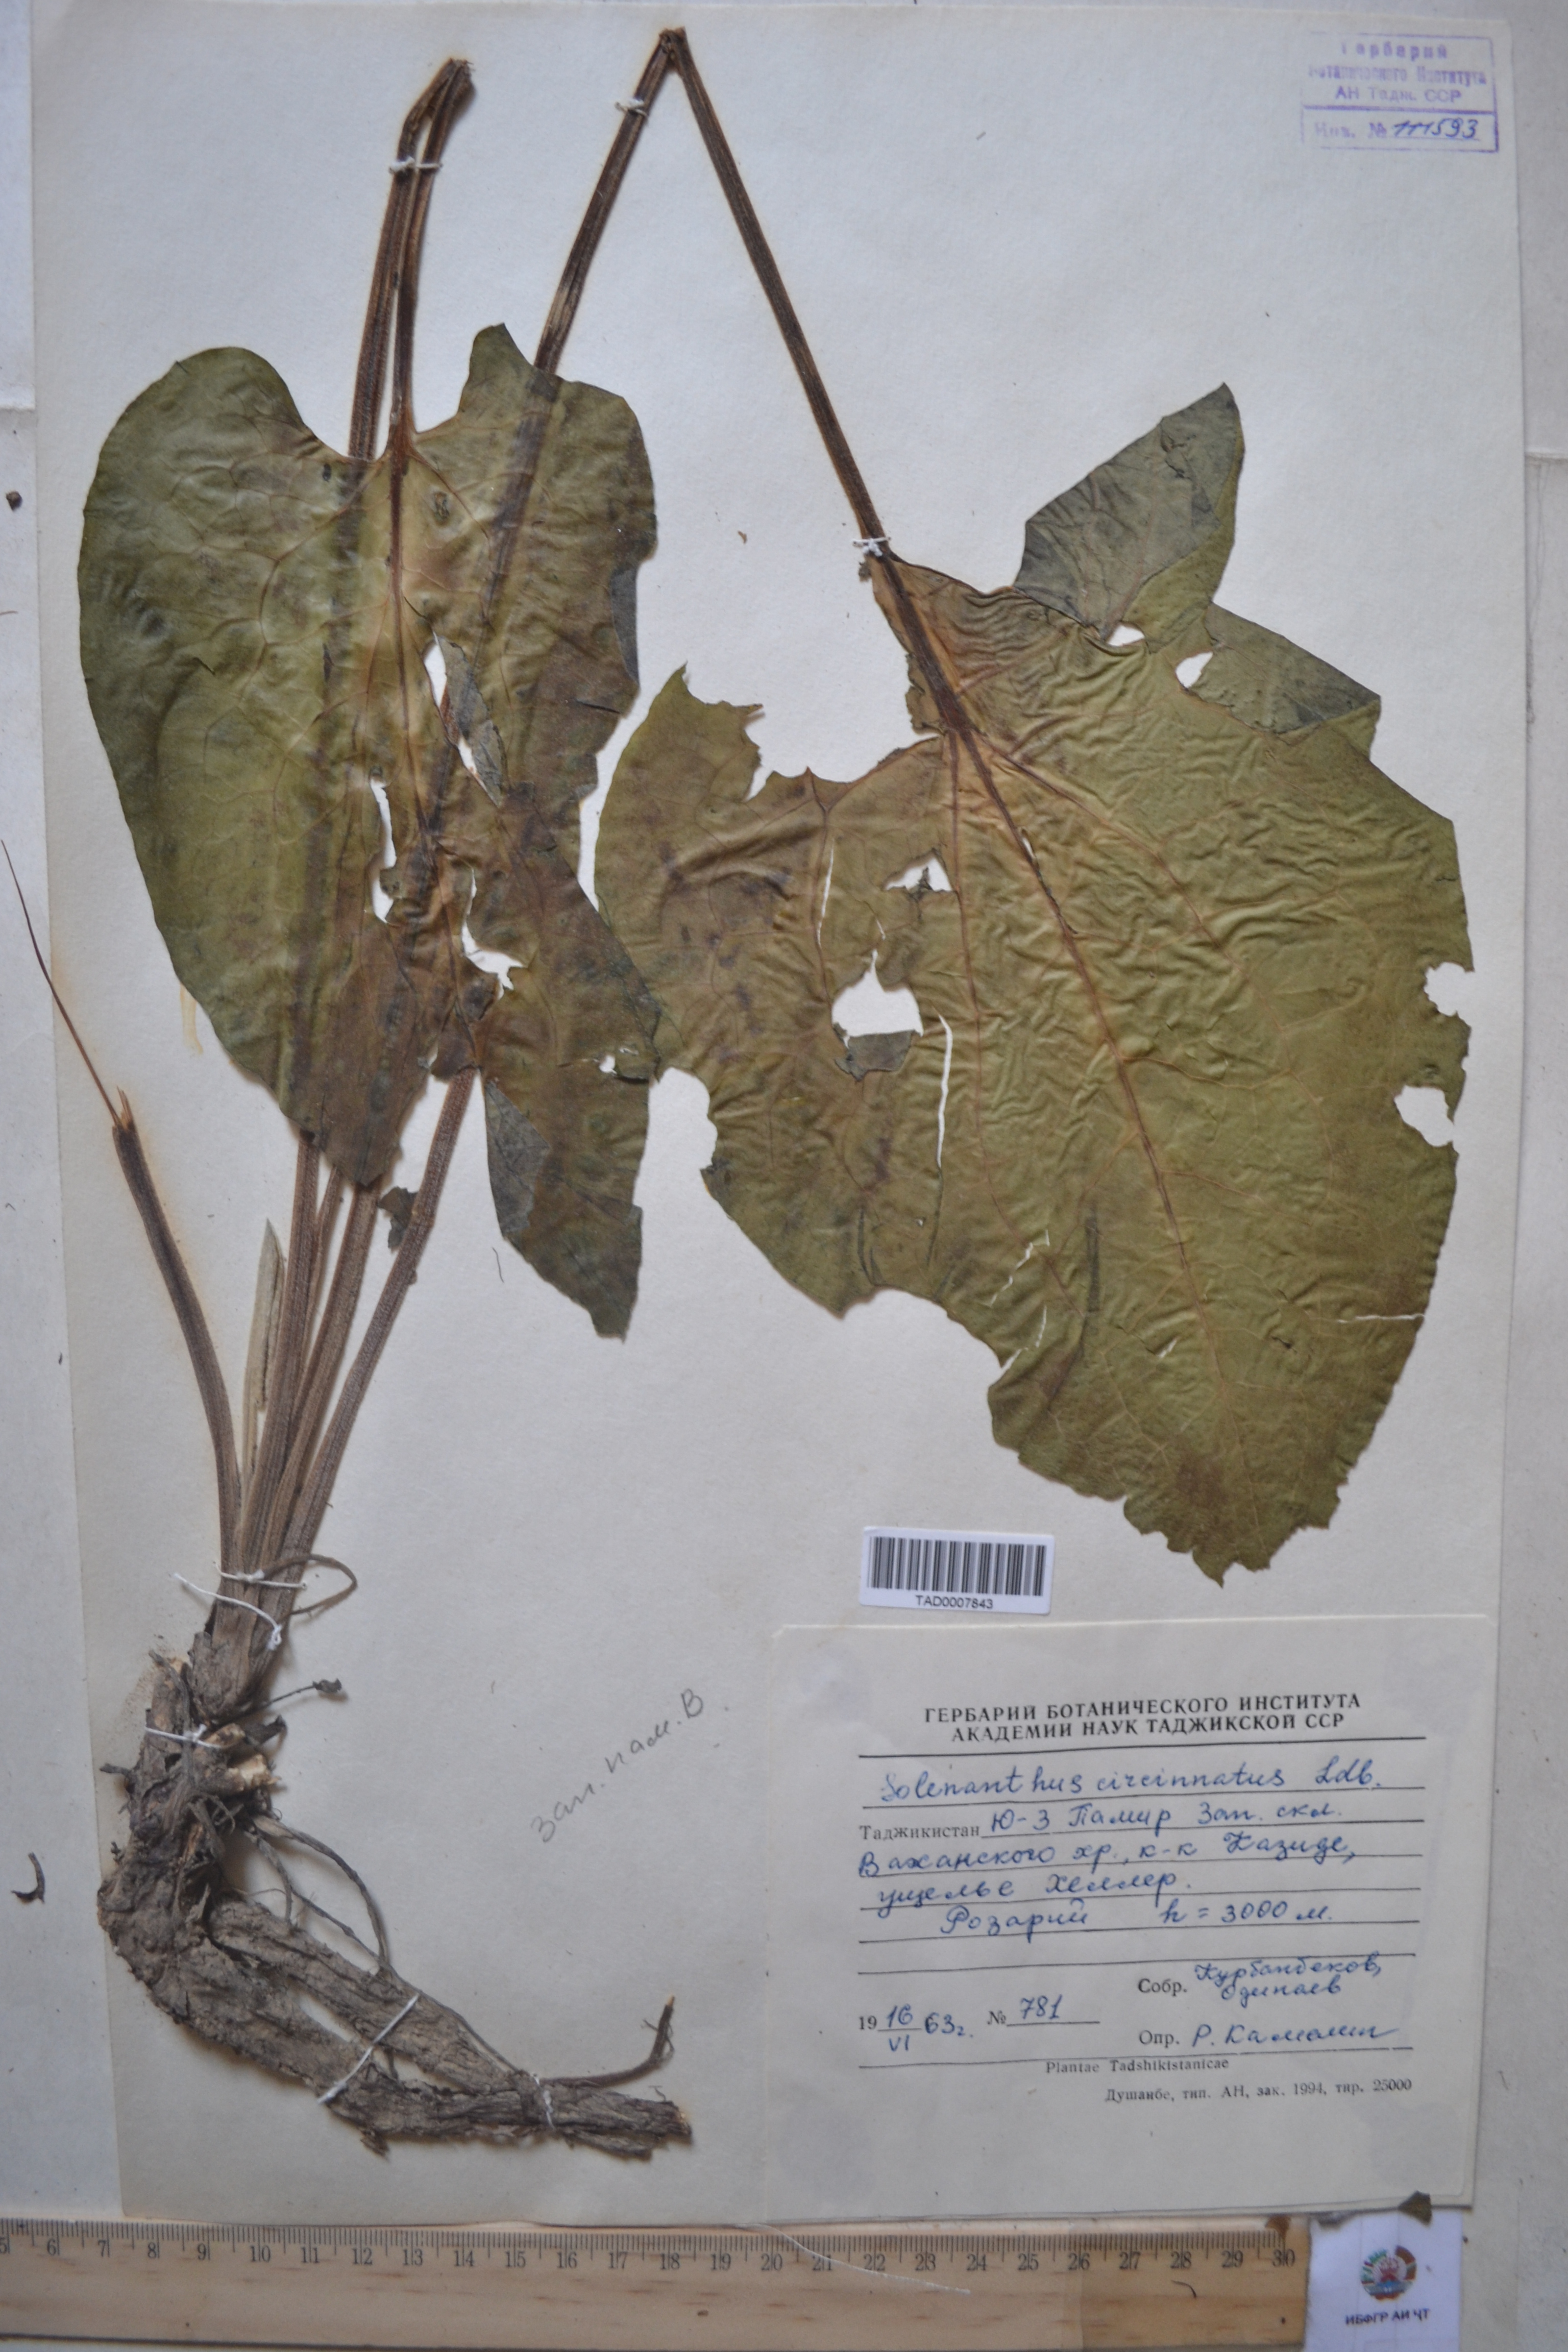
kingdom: Plantae
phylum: Tracheophyta
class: Magnoliopsida
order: Boraginales
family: Boraginaceae
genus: Solenanthus
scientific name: Solenanthus circinnatus
